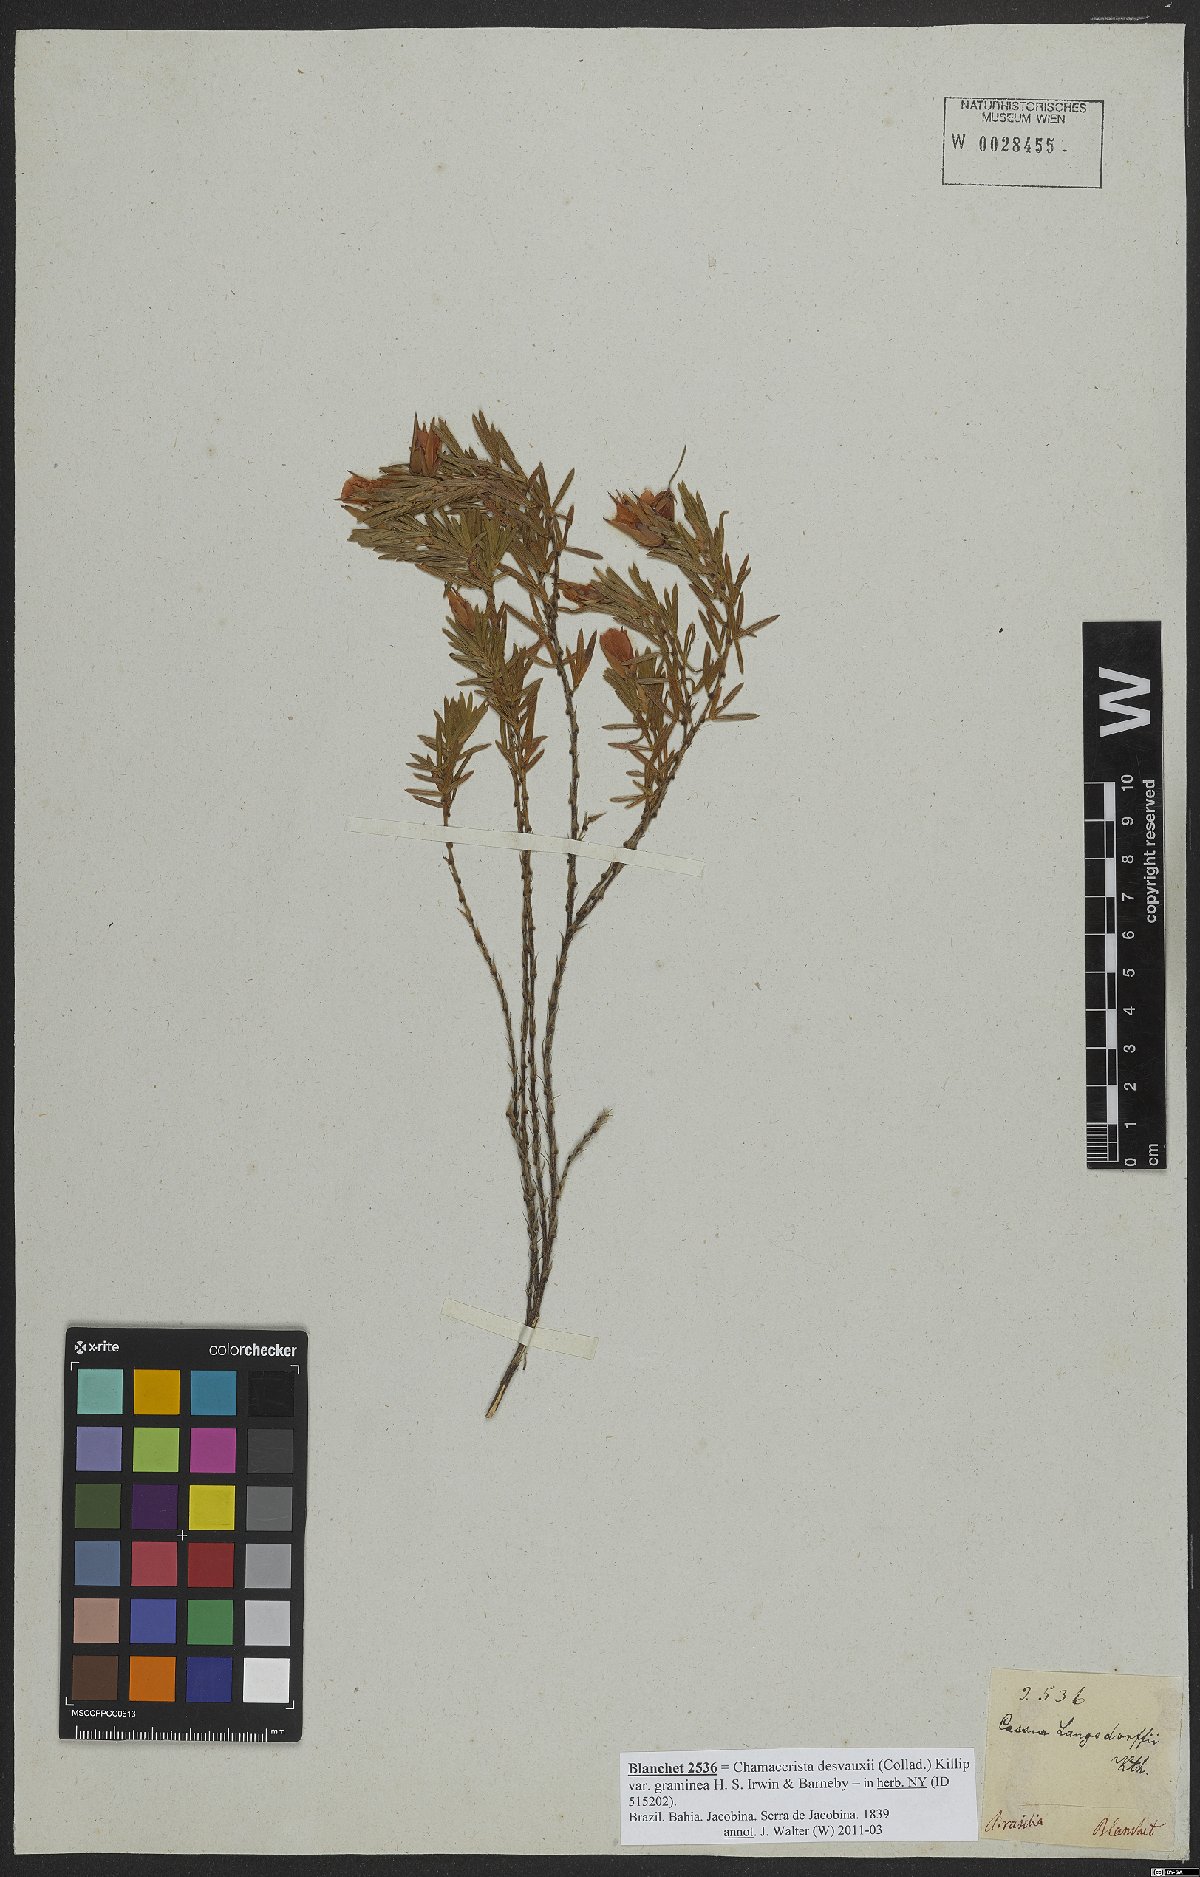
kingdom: Plantae
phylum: Tracheophyta
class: Magnoliopsida
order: Fabales
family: Fabaceae
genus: Chamaecrista
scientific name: Chamaecrista desvauxii
